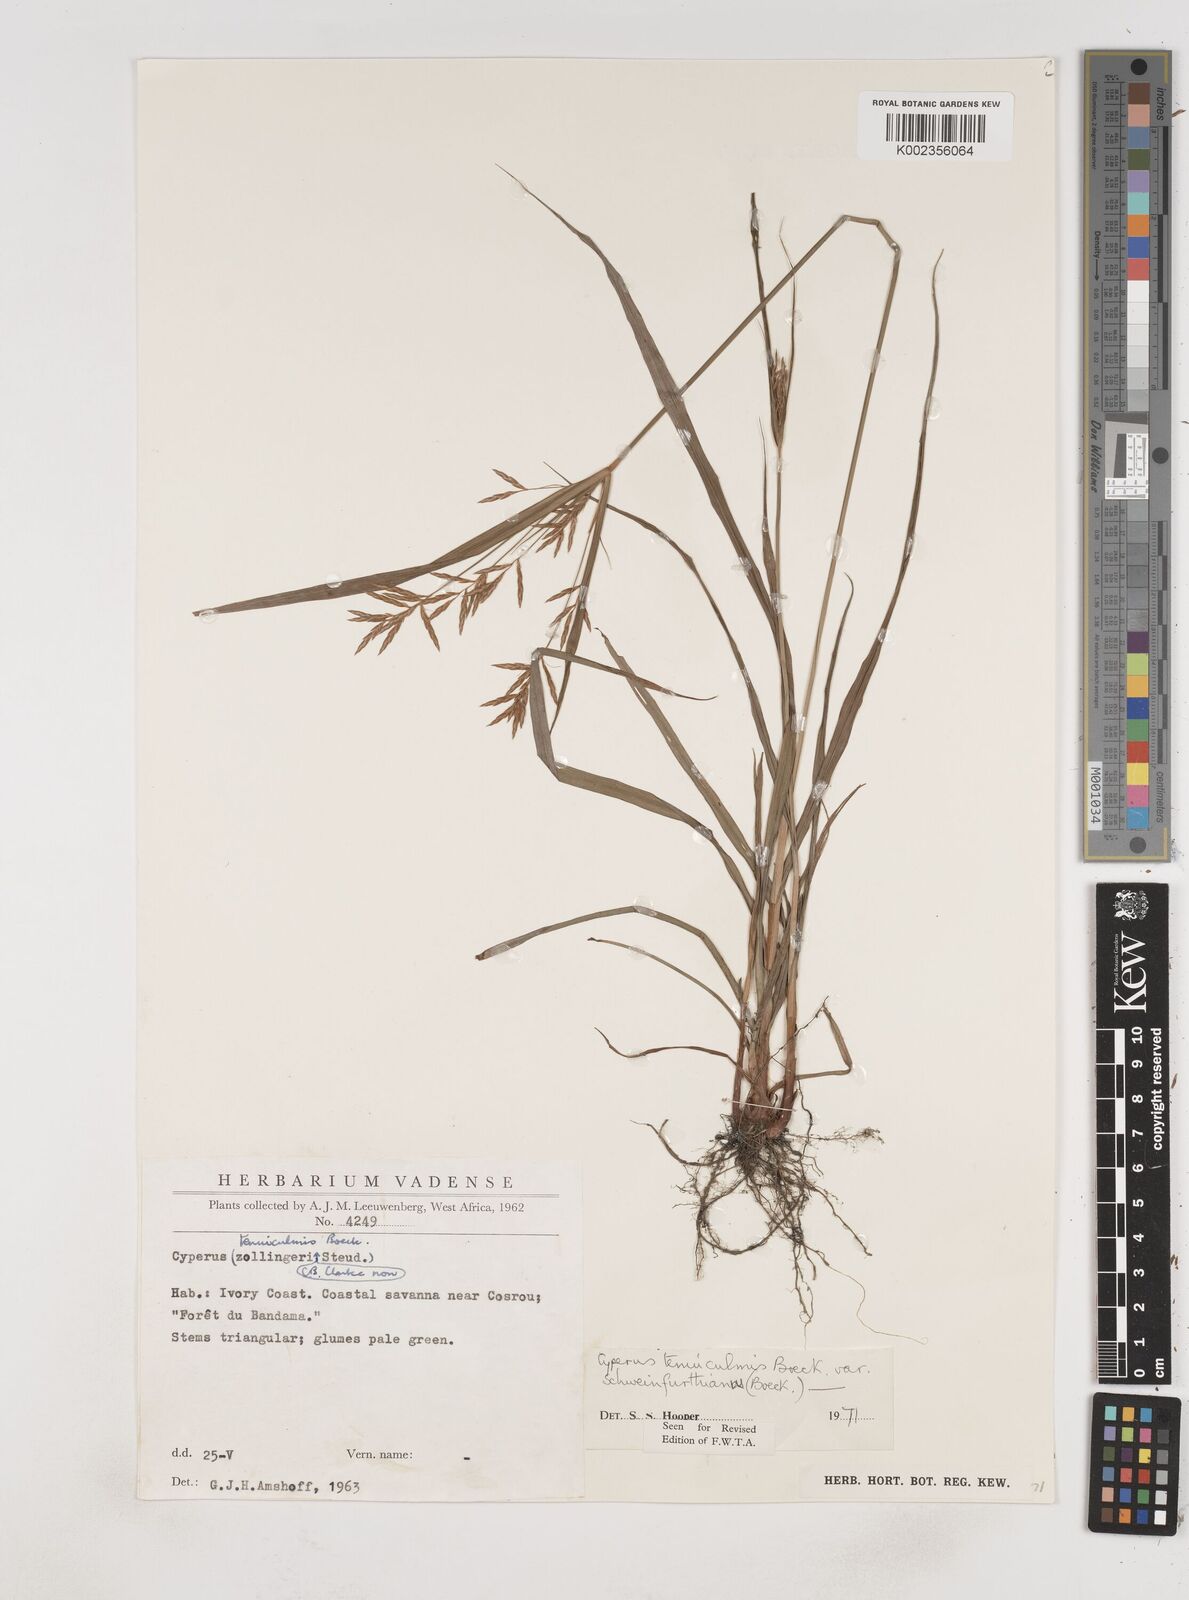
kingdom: Plantae
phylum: Tracheophyta
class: Liliopsida
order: Poales
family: Cyperaceae
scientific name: Cyperaceae
